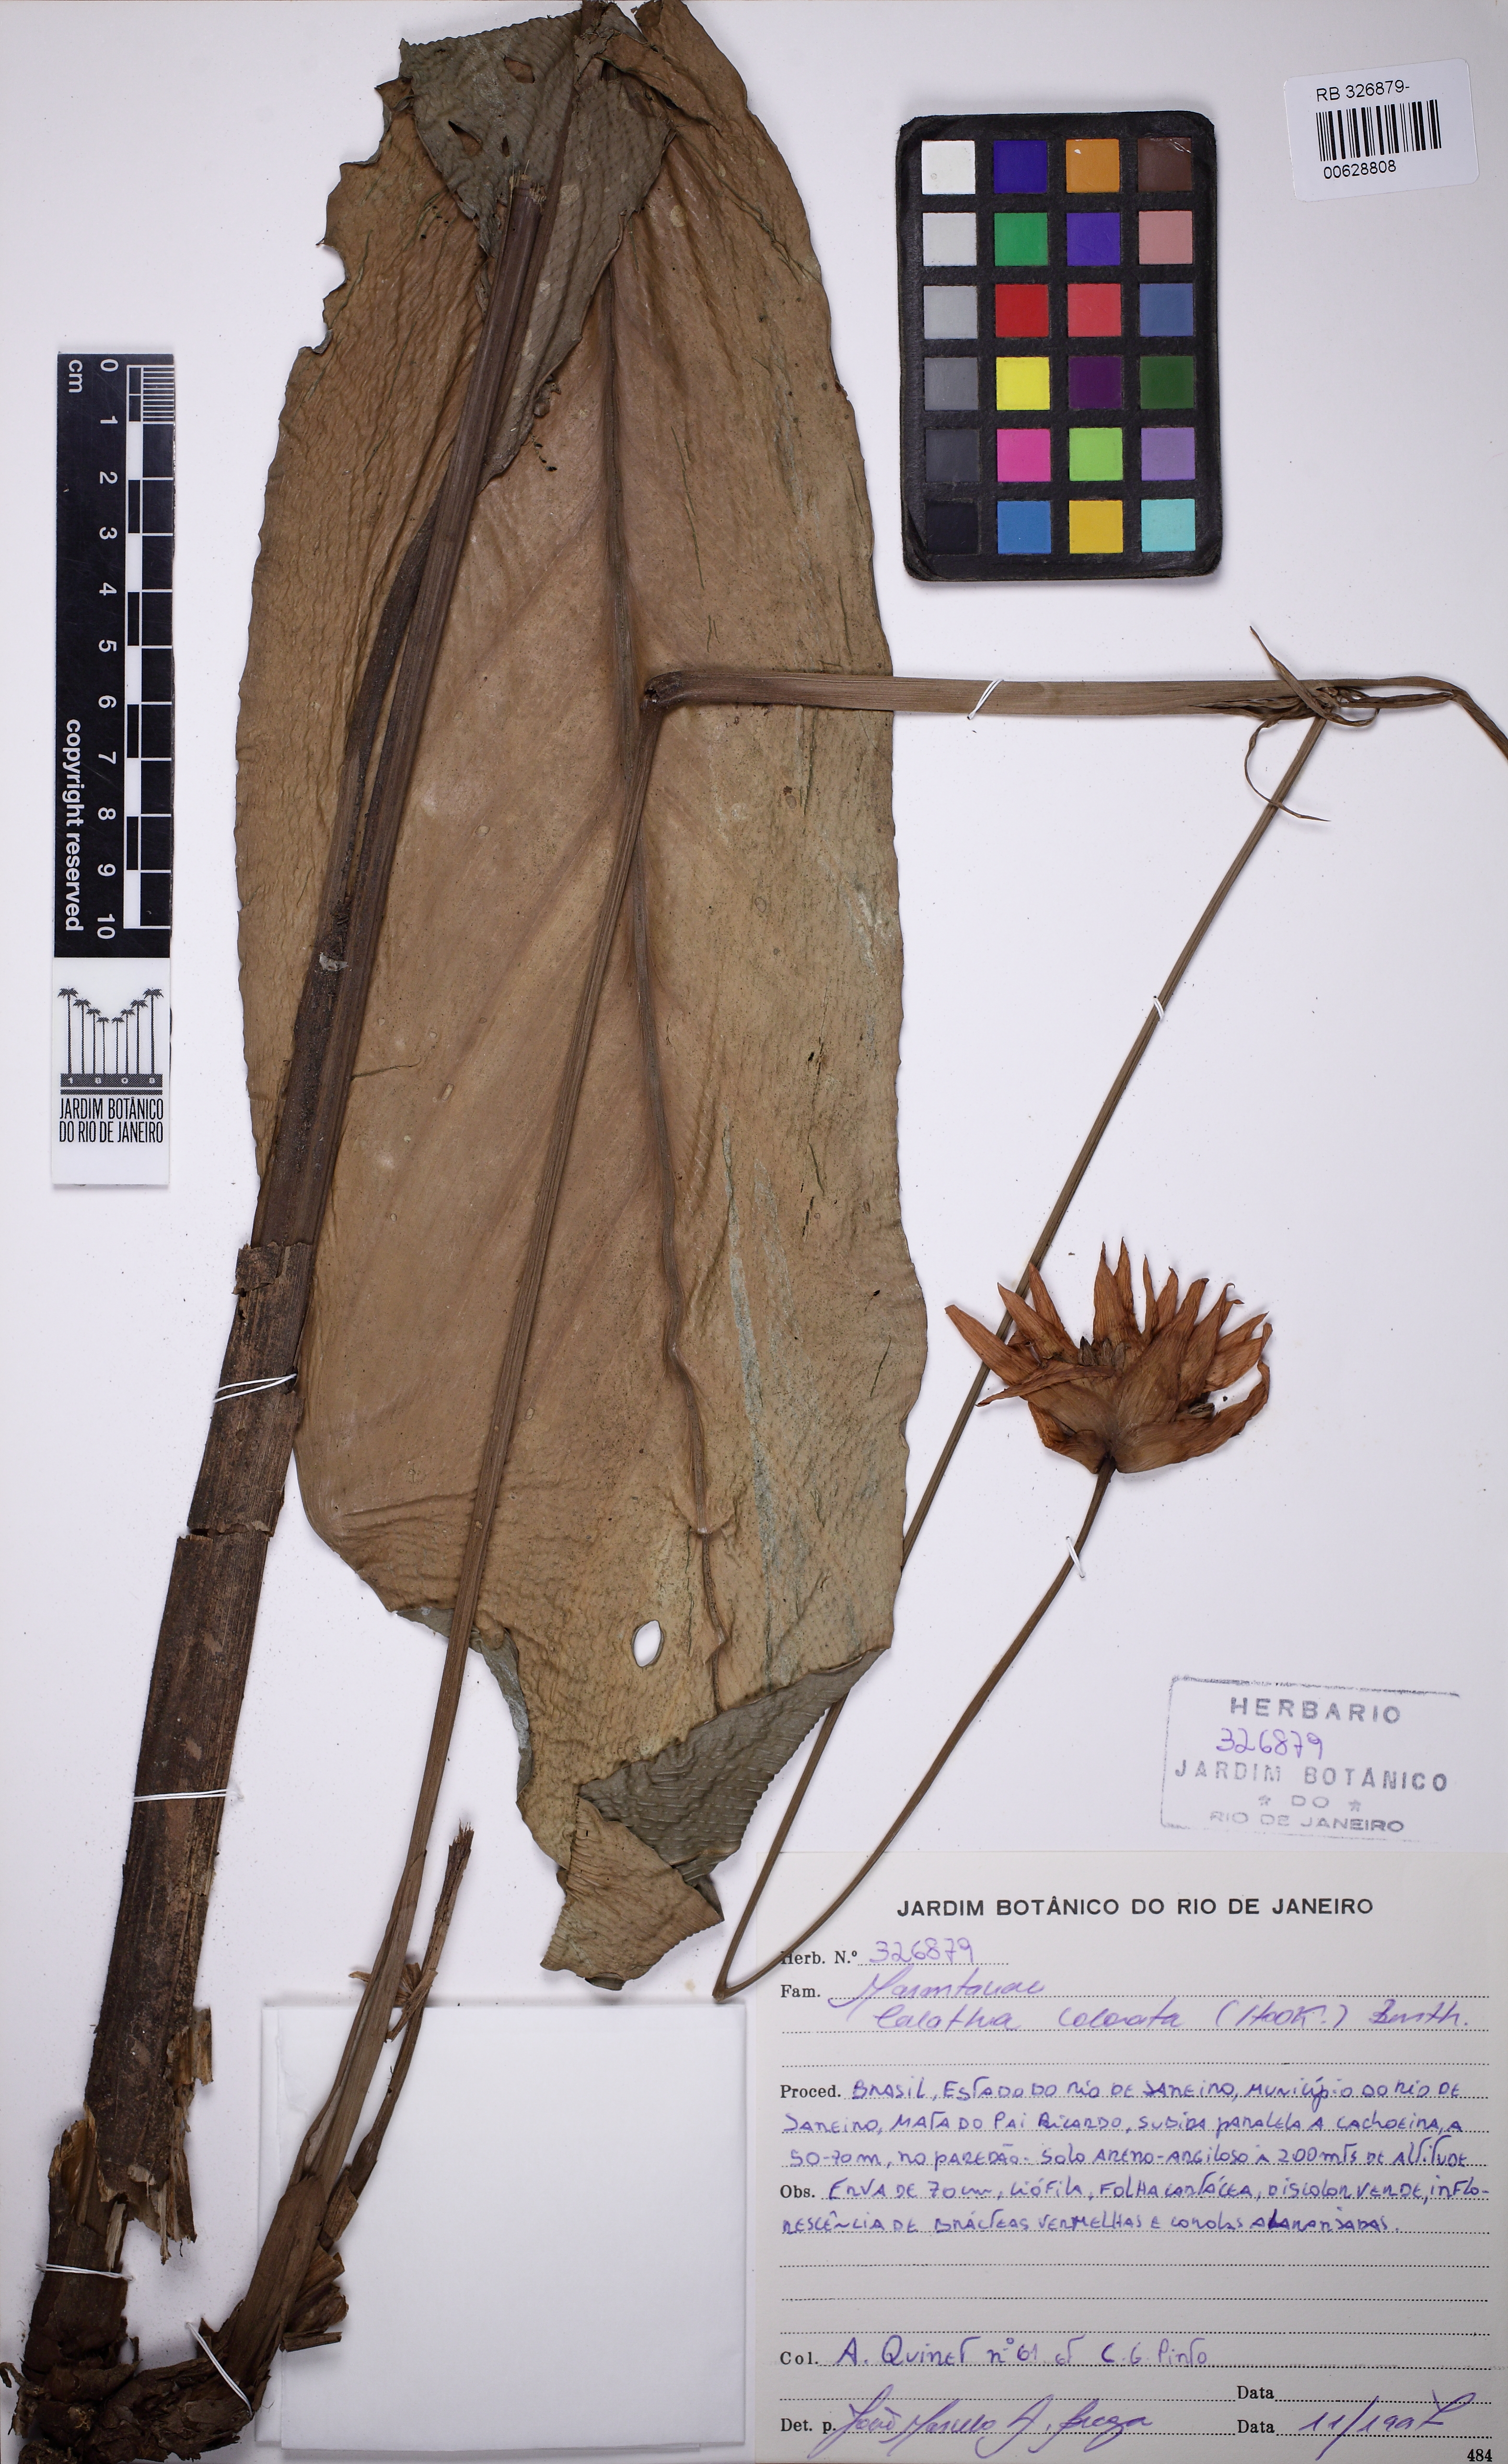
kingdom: Plantae
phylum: Tracheophyta
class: Liliopsida
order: Zingiberales
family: Marantaceae
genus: Goeppertia
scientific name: Goeppertia colorata
